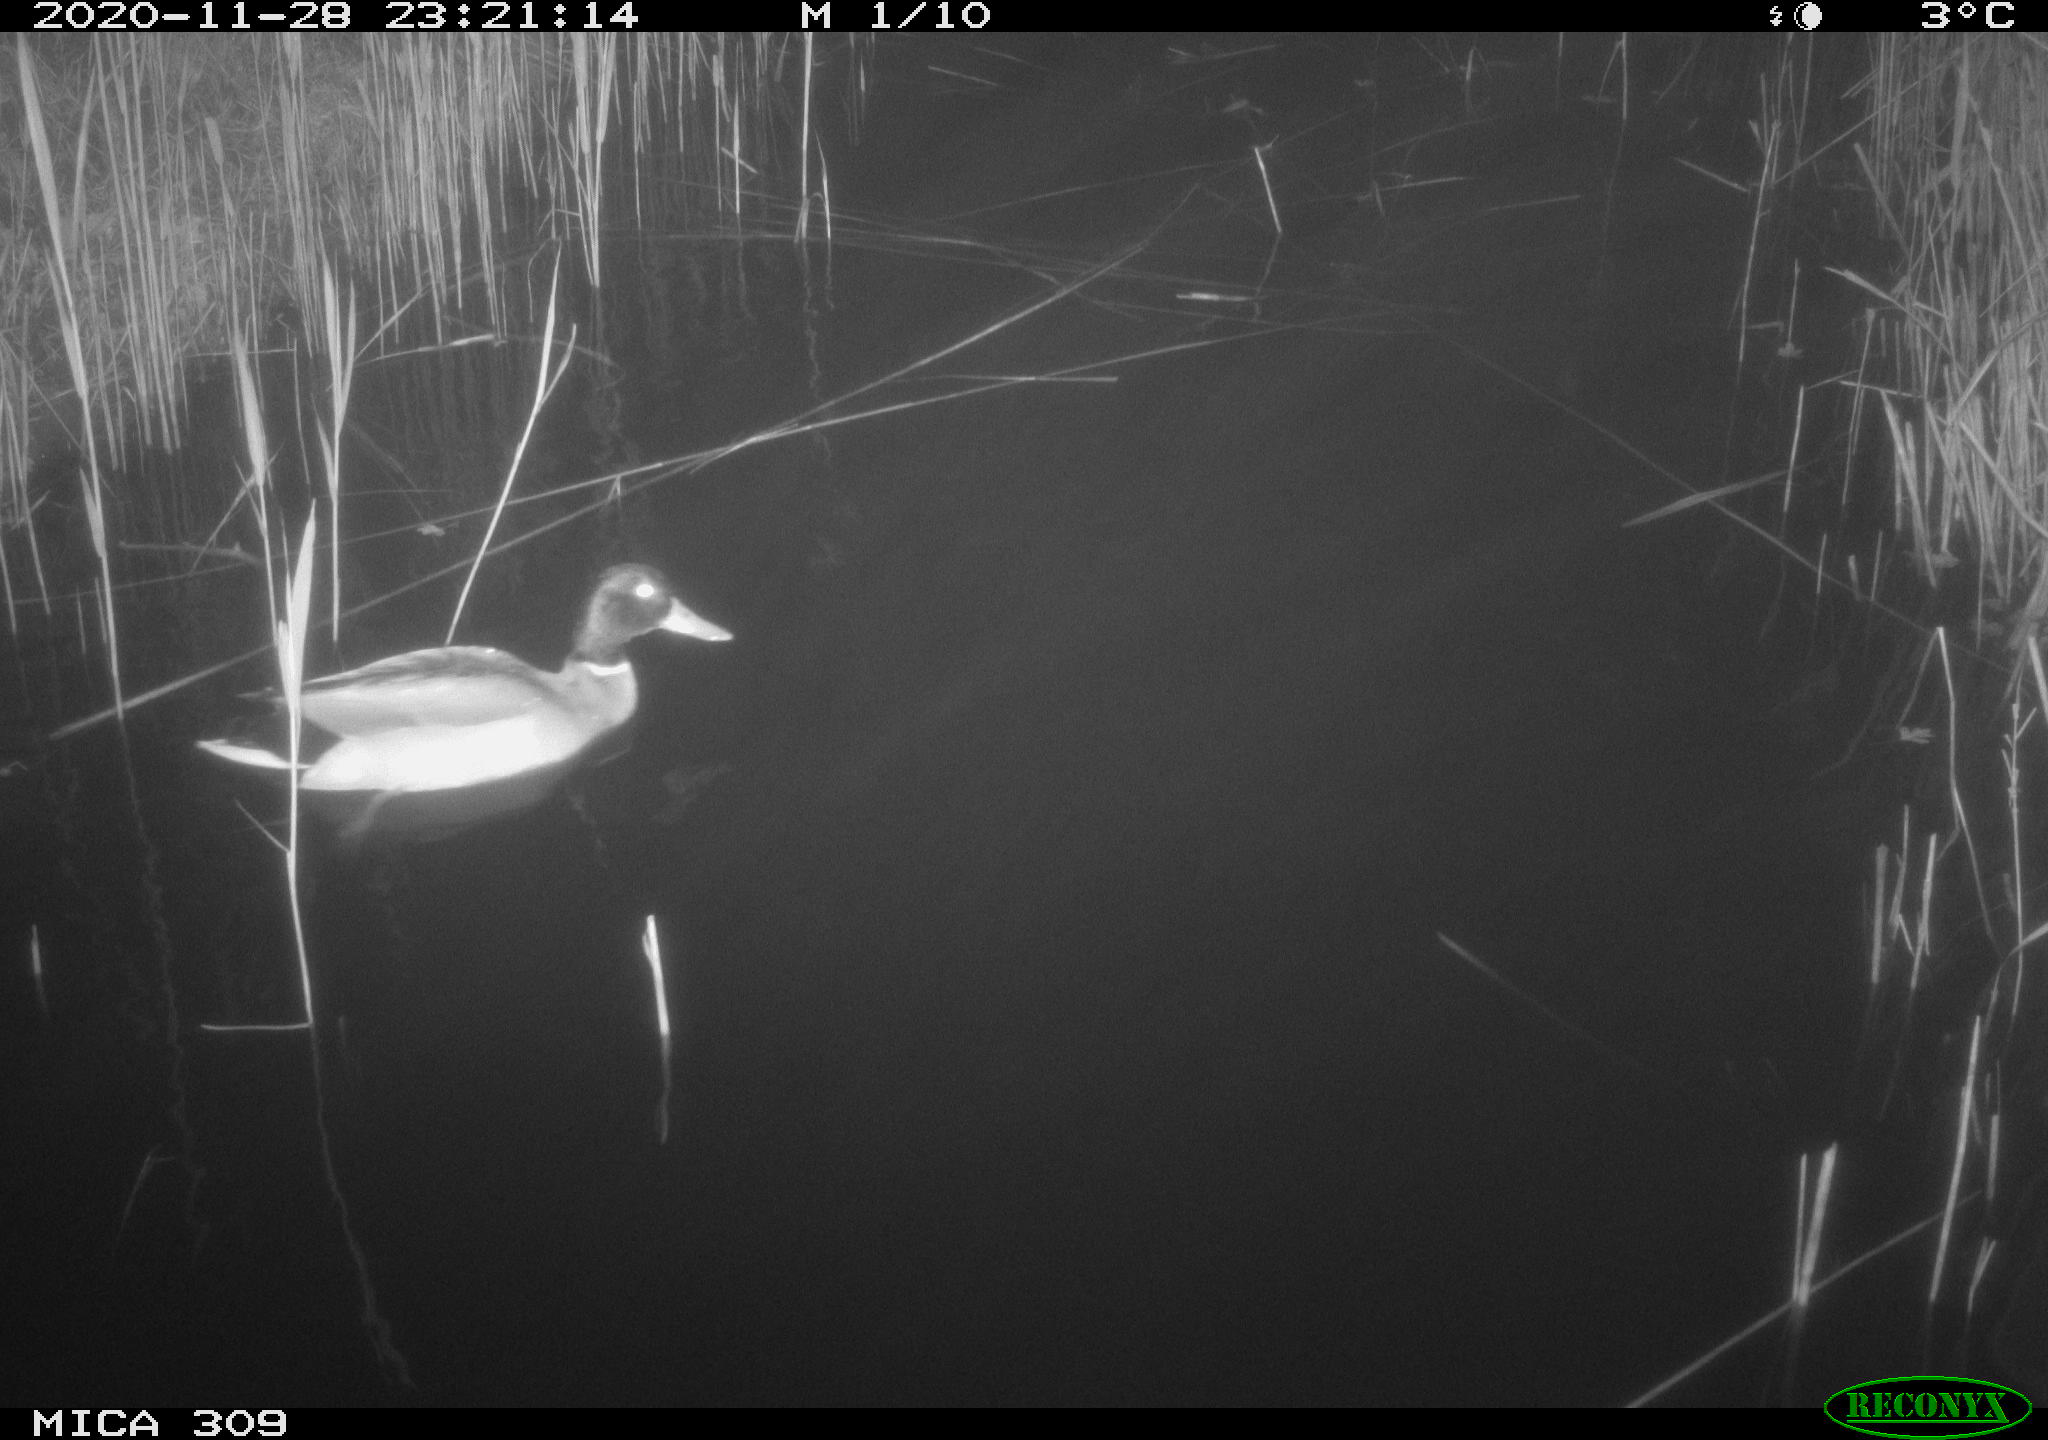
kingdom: Animalia
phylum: Chordata
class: Aves
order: Anseriformes
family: Anatidae
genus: Anas
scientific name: Anas platyrhynchos
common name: Mallard
